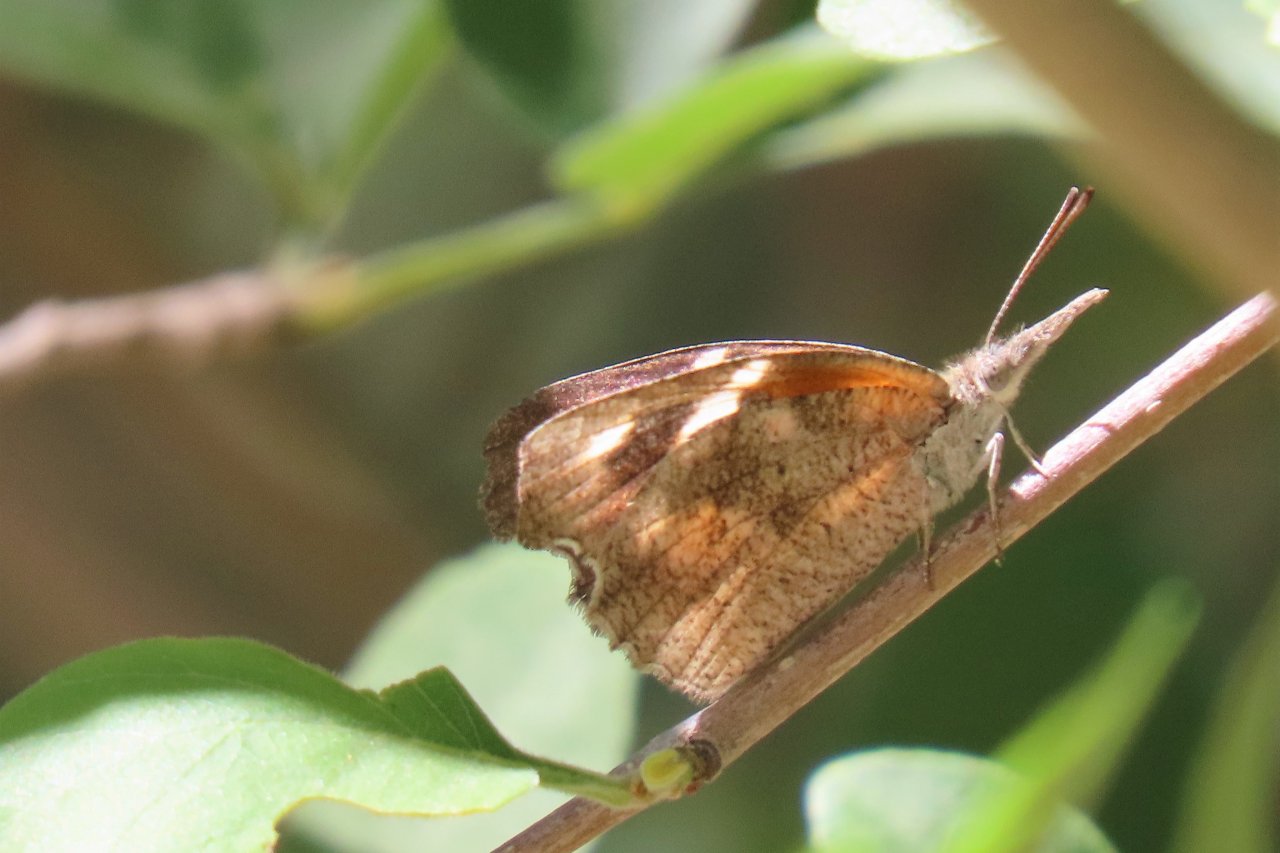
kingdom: Animalia
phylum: Arthropoda
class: Insecta
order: Lepidoptera
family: Nymphalidae
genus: Libytheana
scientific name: Libytheana carinenta
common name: American Snout
